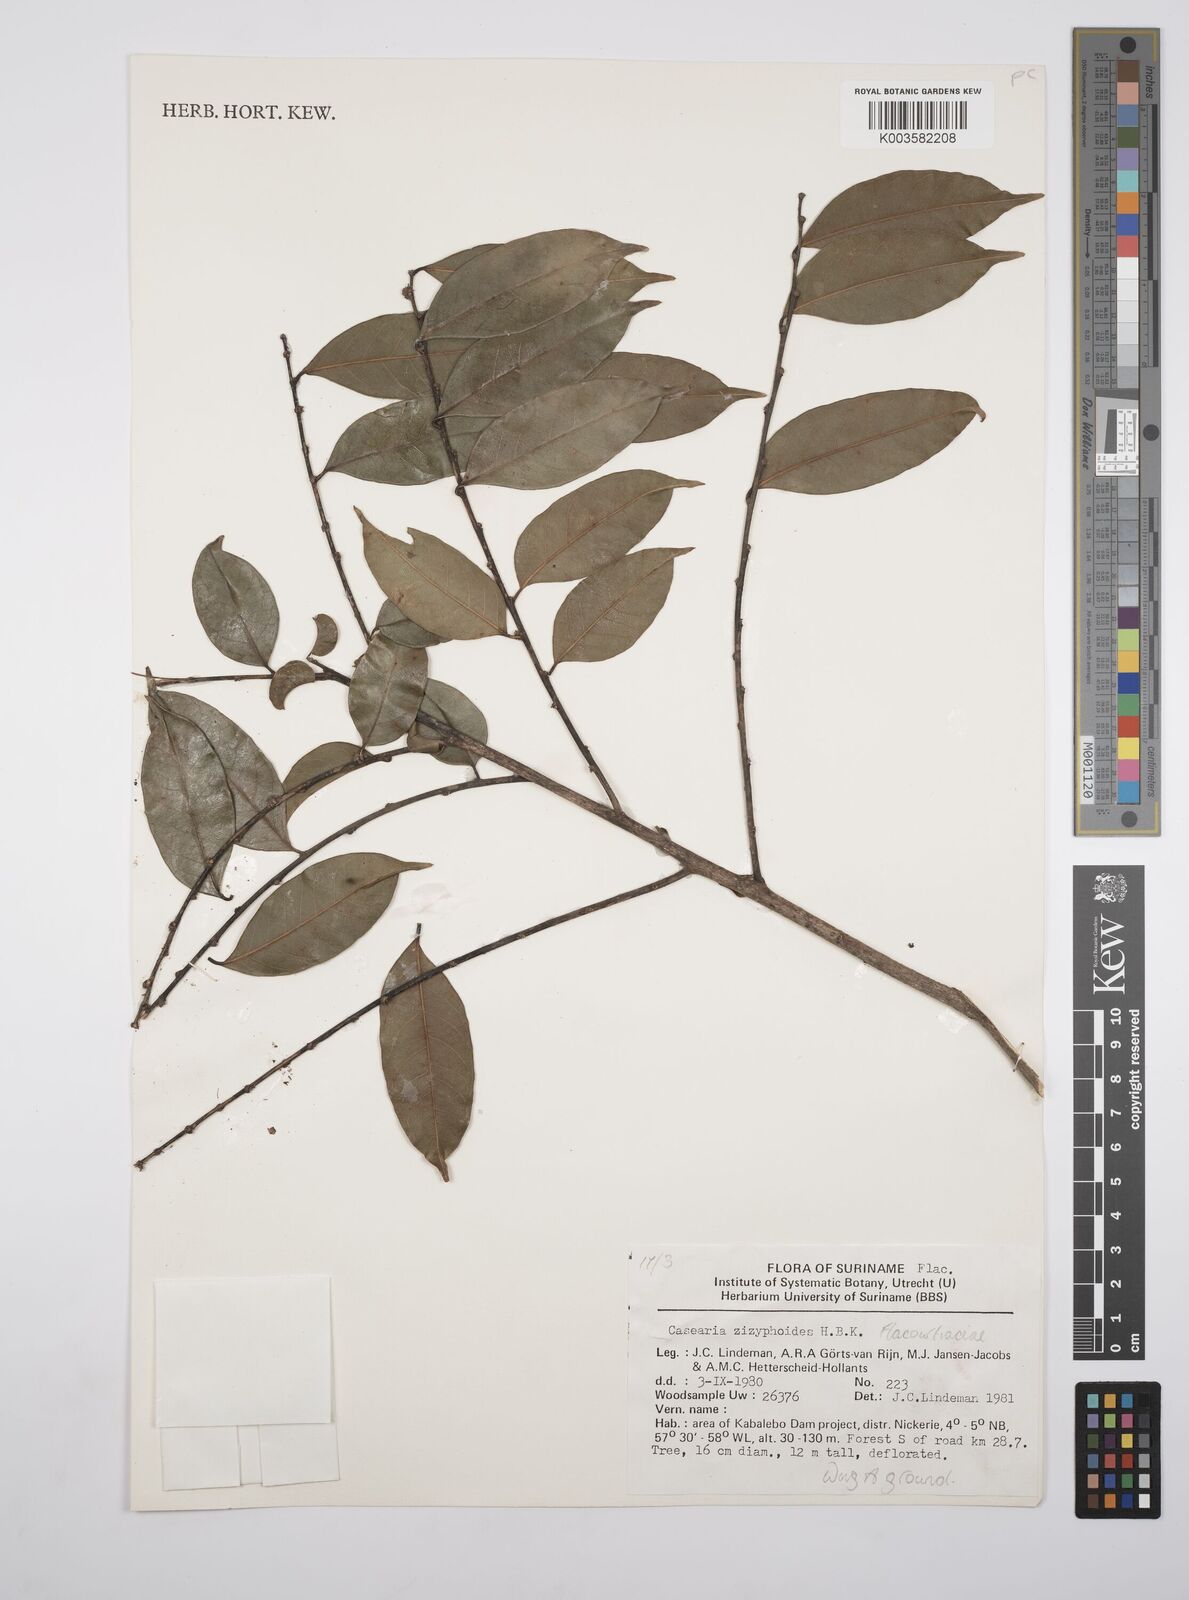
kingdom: Plantae
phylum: Tracheophyta
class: Magnoliopsida
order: Malpighiales
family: Salicaceae
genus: Casearia
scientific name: Casearia zizyphoides
